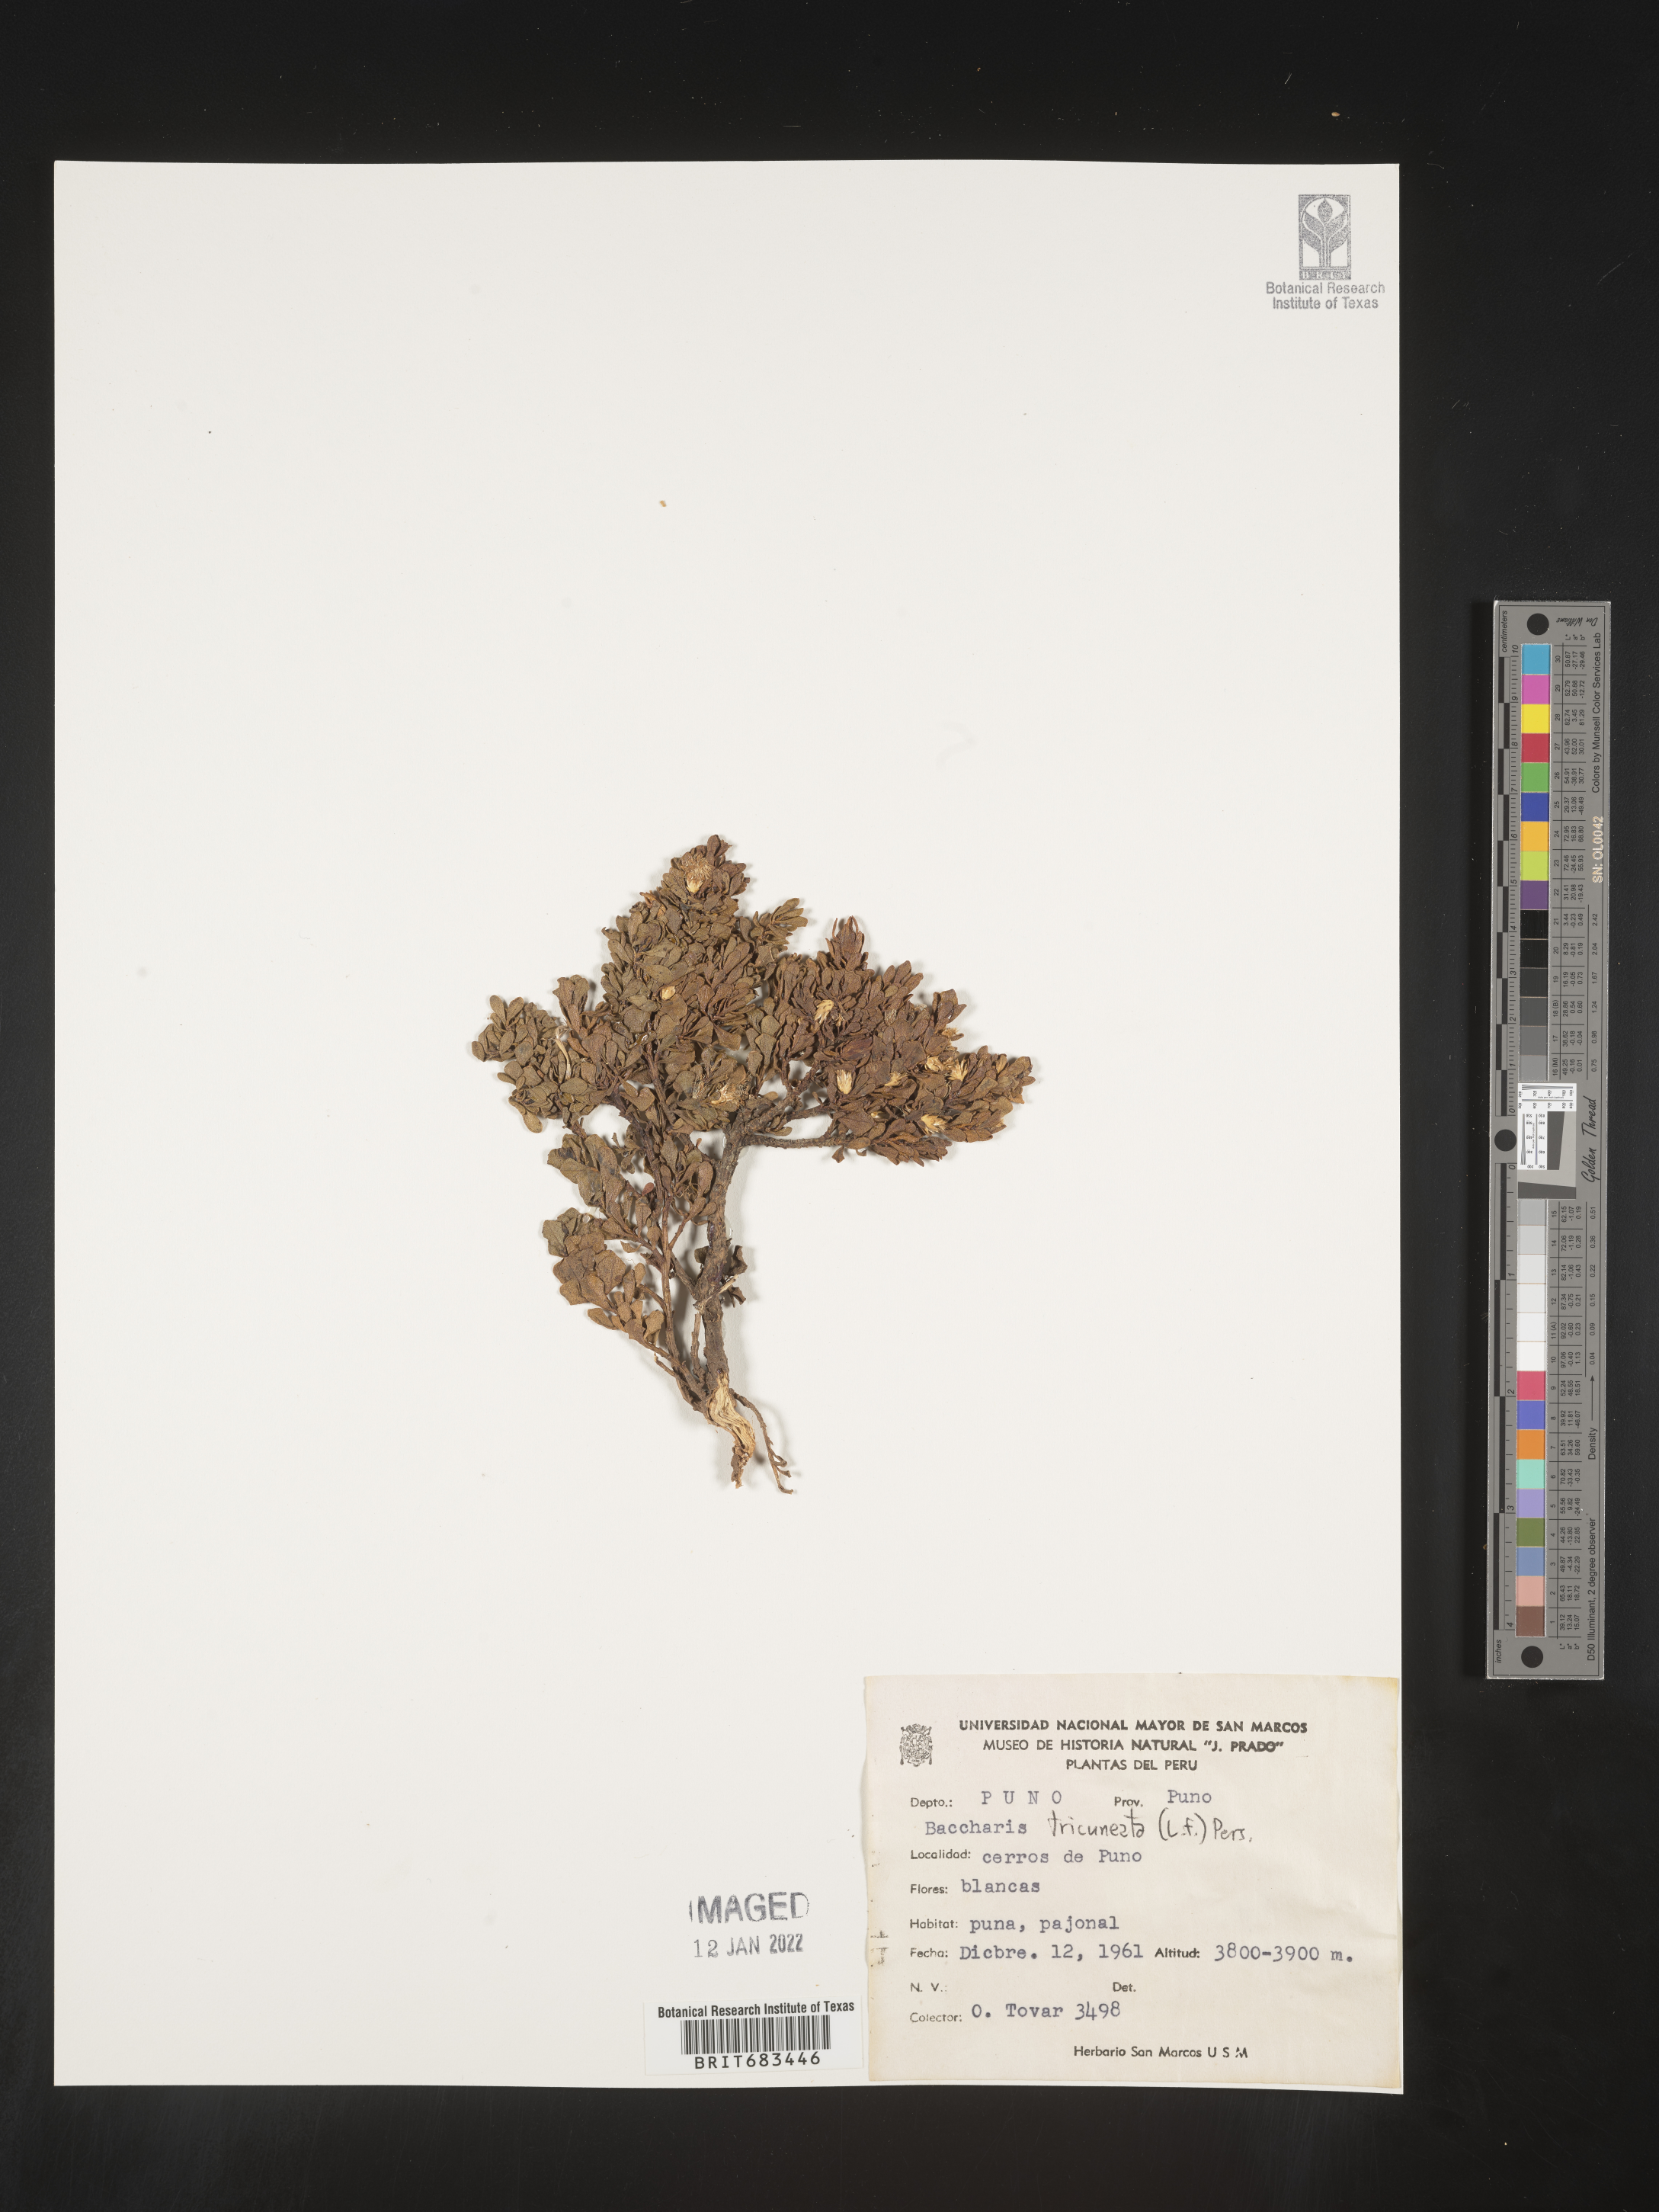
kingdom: Plantae
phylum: Tracheophyta
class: Magnoliopsida
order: Asterales
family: Asteraceae
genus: Baccharis
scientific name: Baccharis
